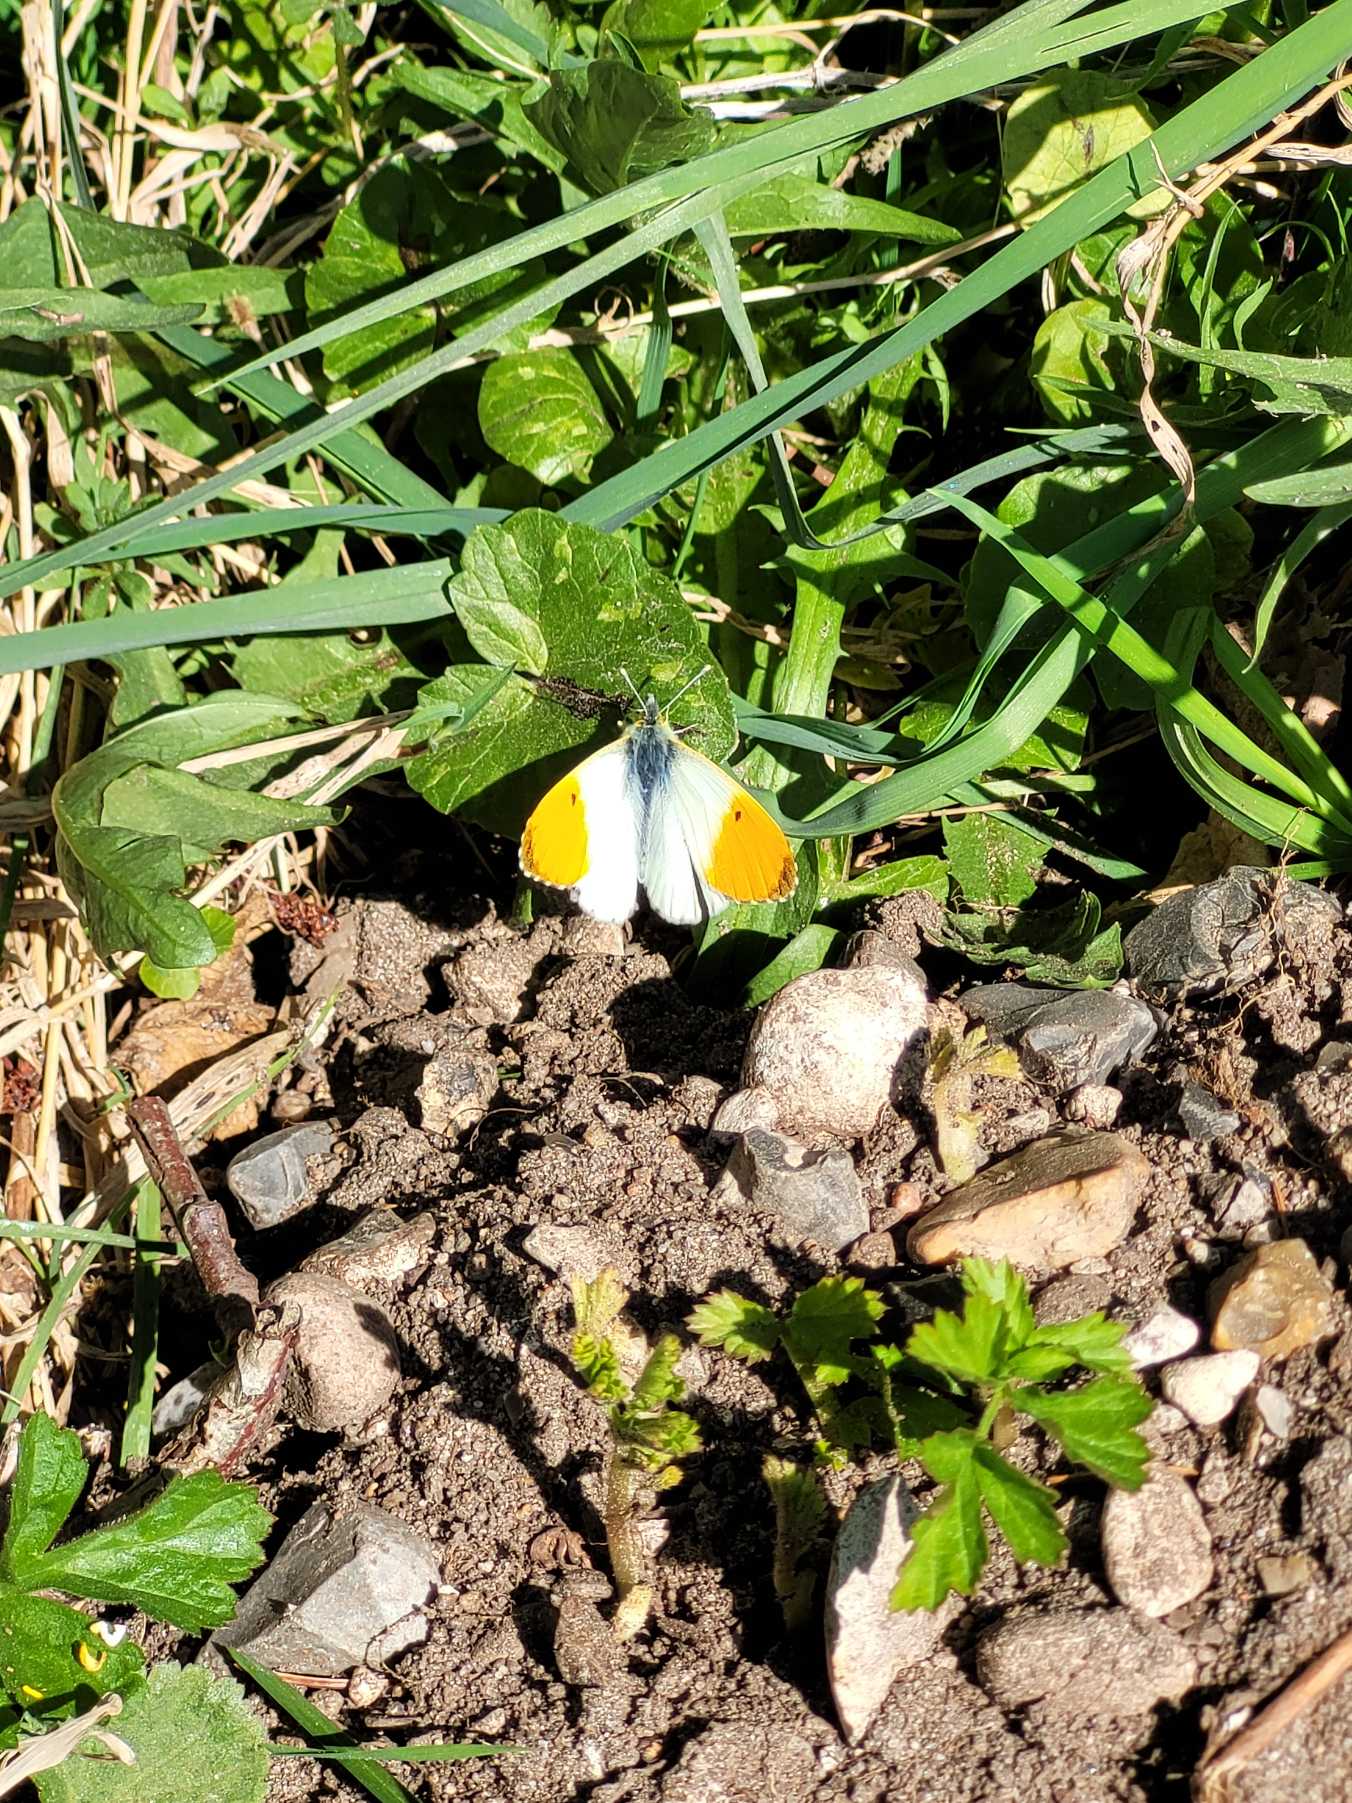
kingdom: Animalia
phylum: Arthropoda
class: Insecta
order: Lepidoptera
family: Pieridae
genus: Anthocharis
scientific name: Anthocharis cardamines
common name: Aurora
